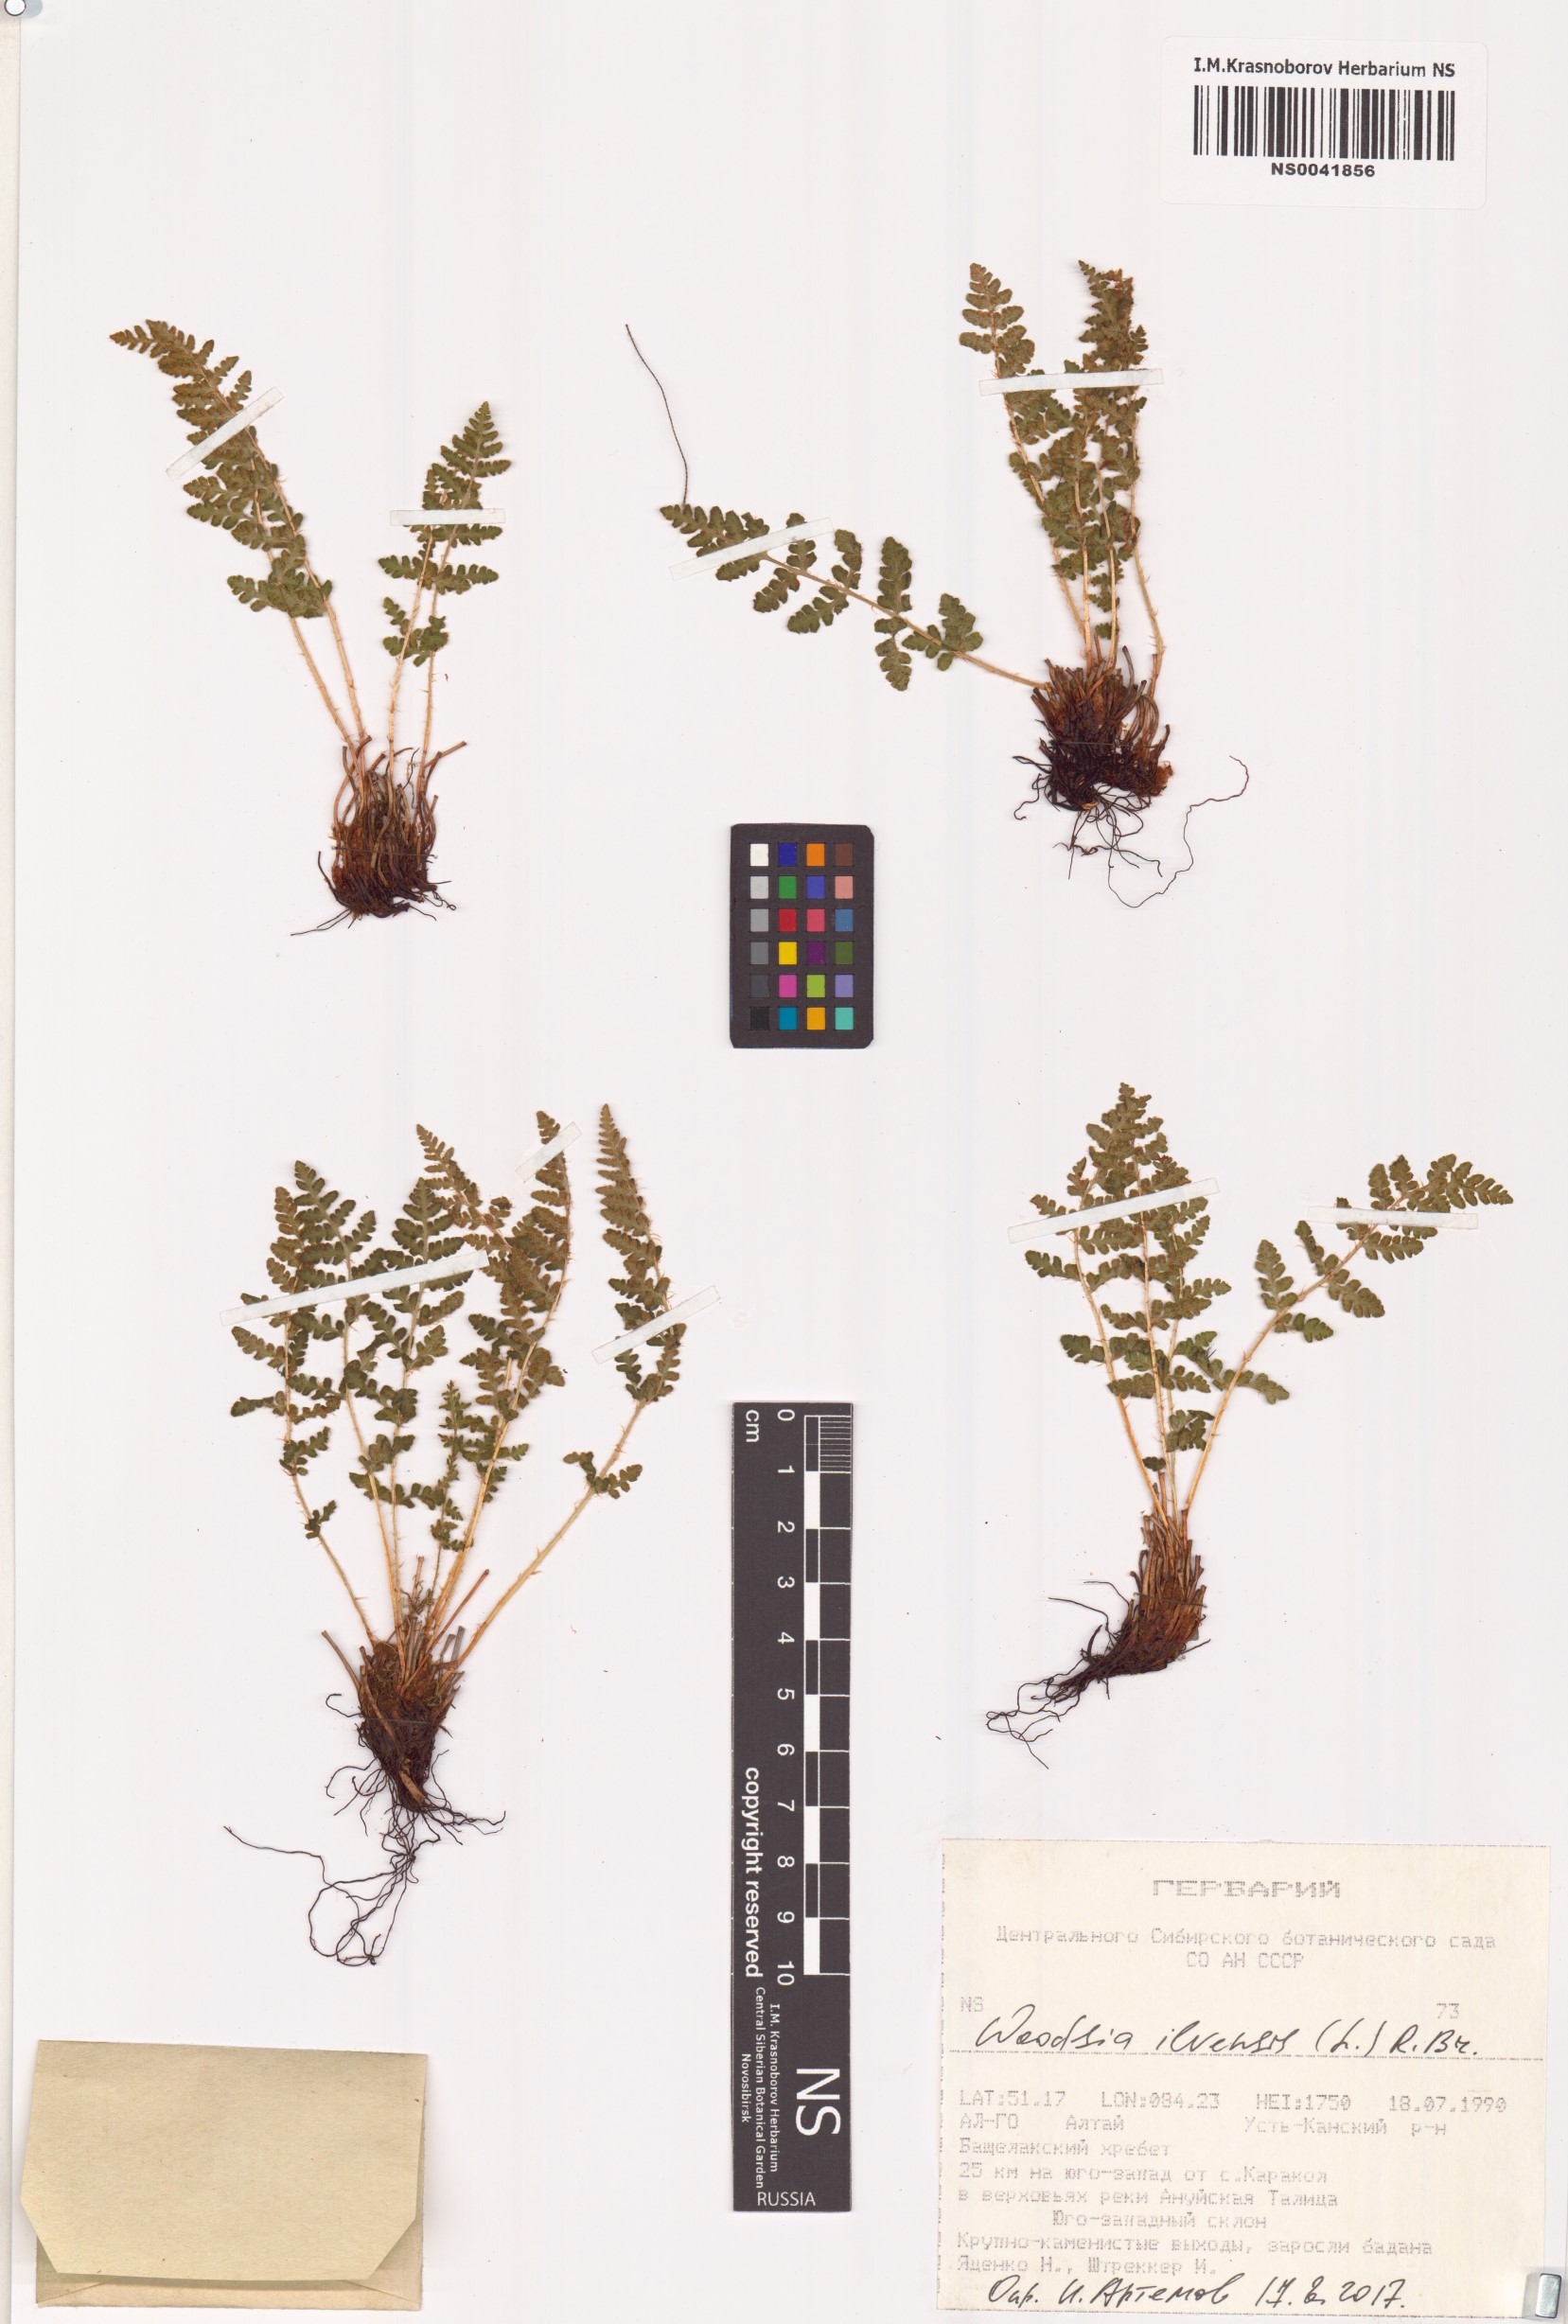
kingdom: Plantae
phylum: Tracheophyta
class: Polypodiopsida
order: Polypodiales
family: Woodsiaceae
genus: Woodsia
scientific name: Woodsia ilvensis
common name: Fragrant woodsia
